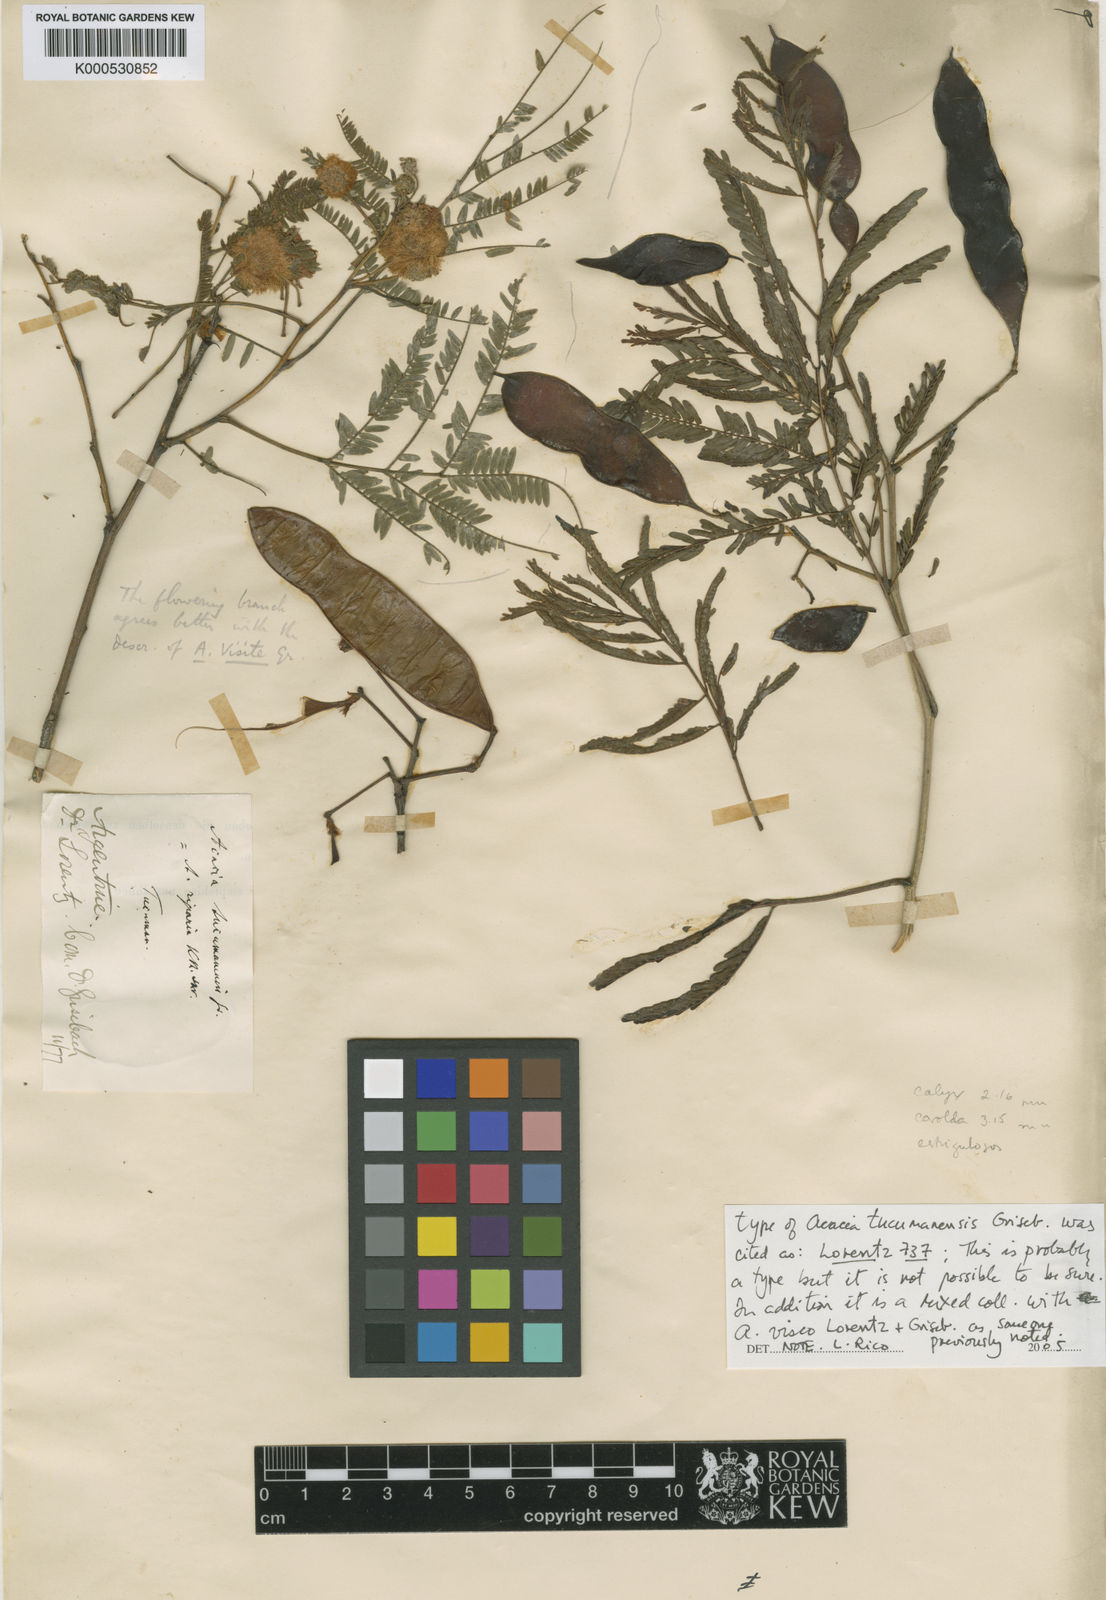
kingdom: Plantae
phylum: Tracheophyta
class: Magnoliopsida
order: Fabales
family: Fabaceae
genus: Senegalia
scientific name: Senegalia tucumanensis
